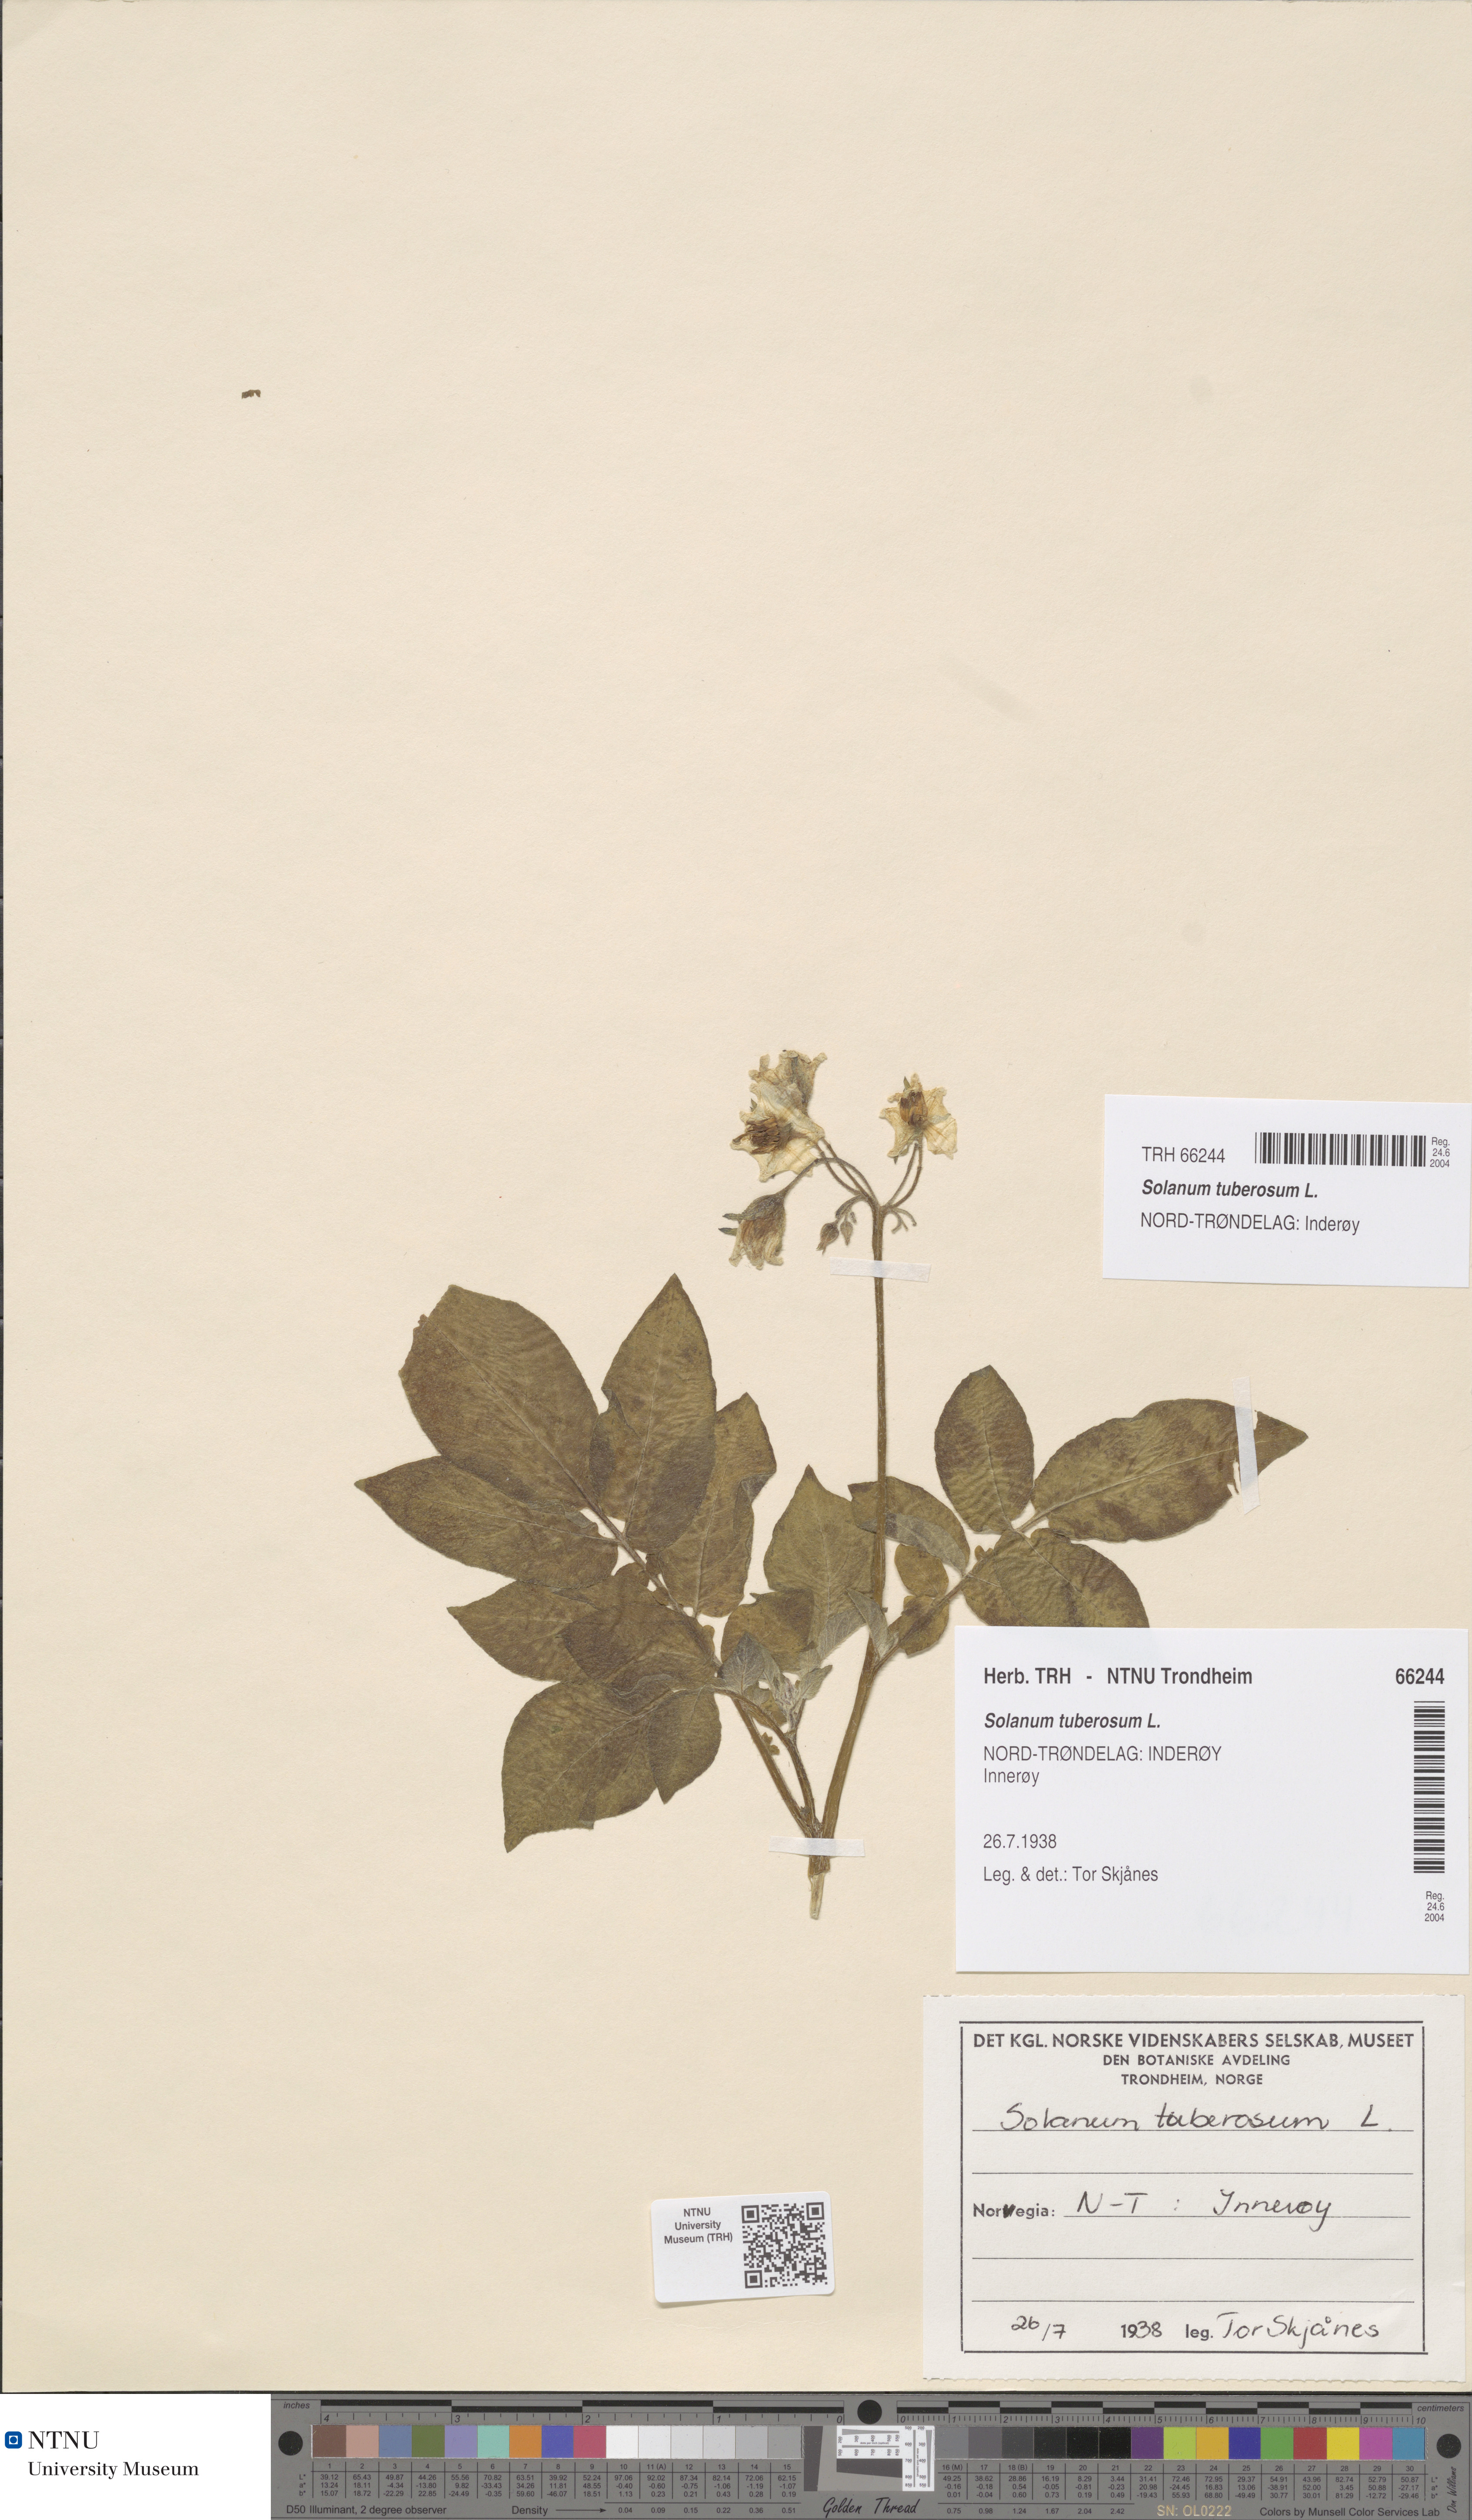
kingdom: Plantae
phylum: Tracheophyta
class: Magnoliopsida
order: Solanales
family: Solanaceae
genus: Solanum
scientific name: Solanum tuberosum
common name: Potato
